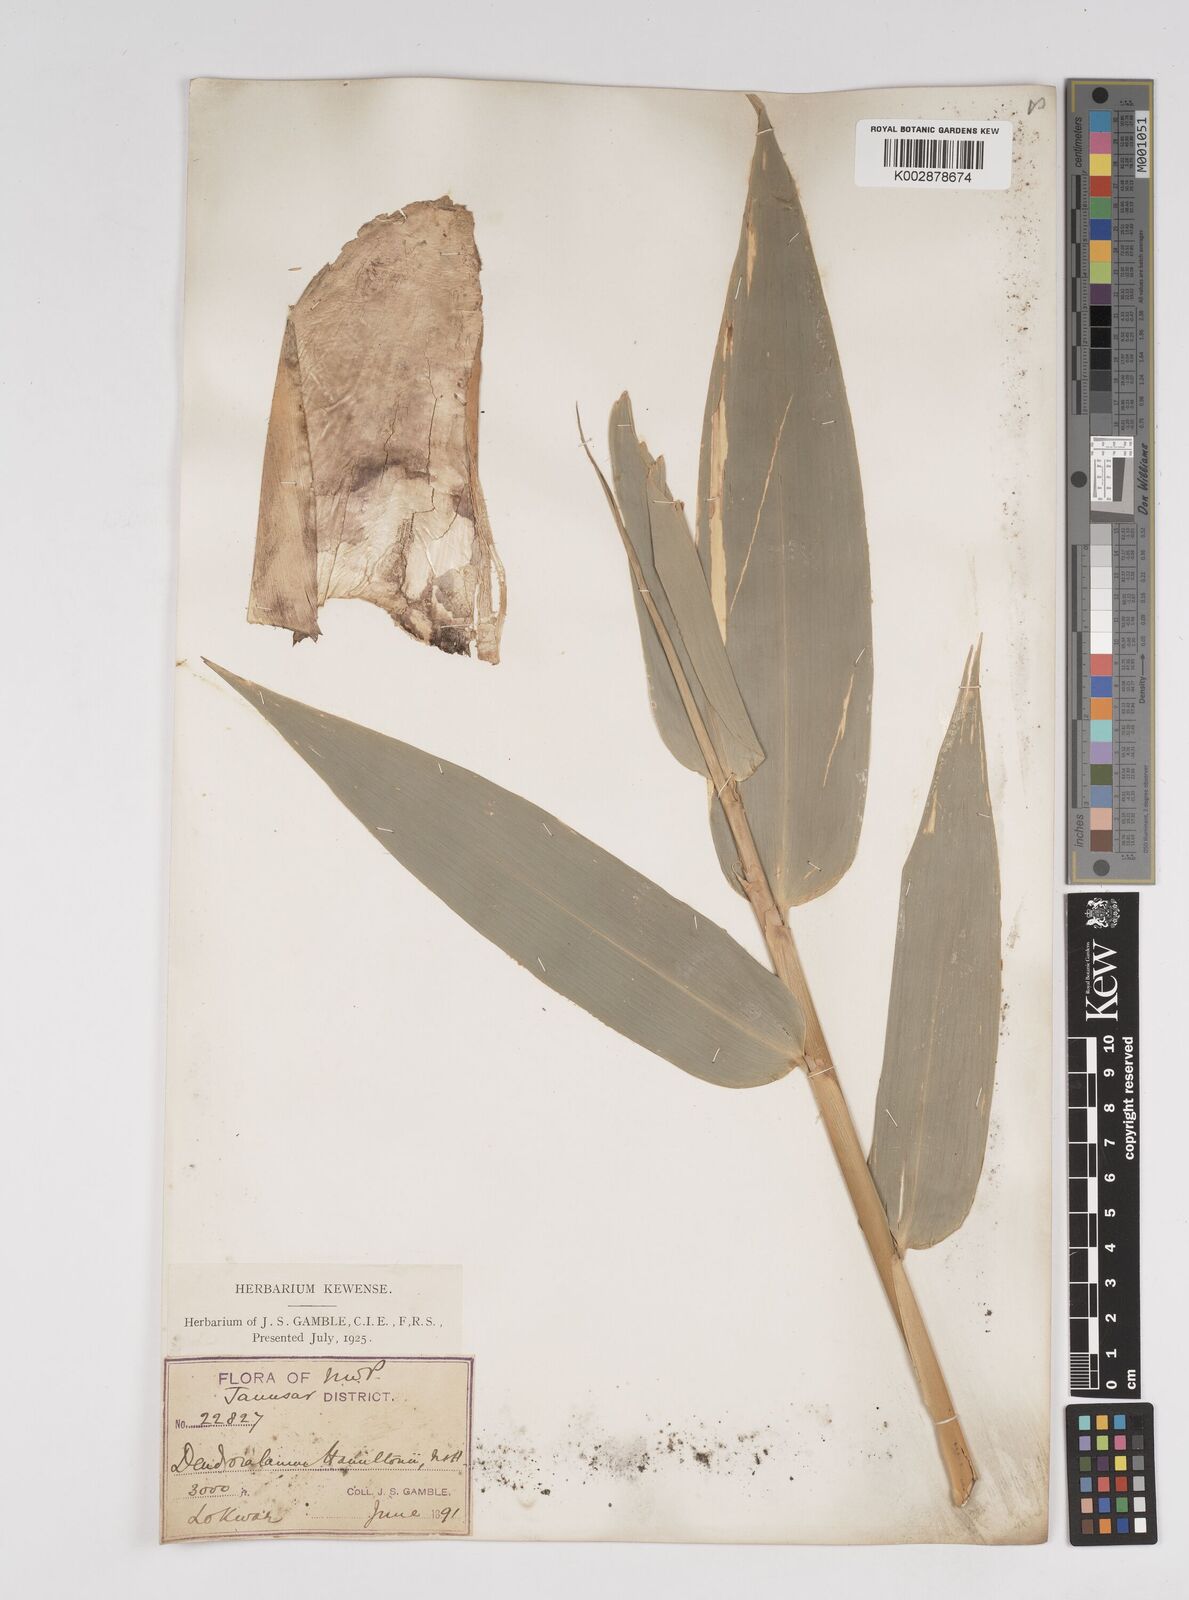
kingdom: Plantae
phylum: Tracheophyta
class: Liliopsida
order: Poales
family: Poaceae
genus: Dendrocalamus
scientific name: Dendrocalamus hamiltonii
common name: Tama bamboo
